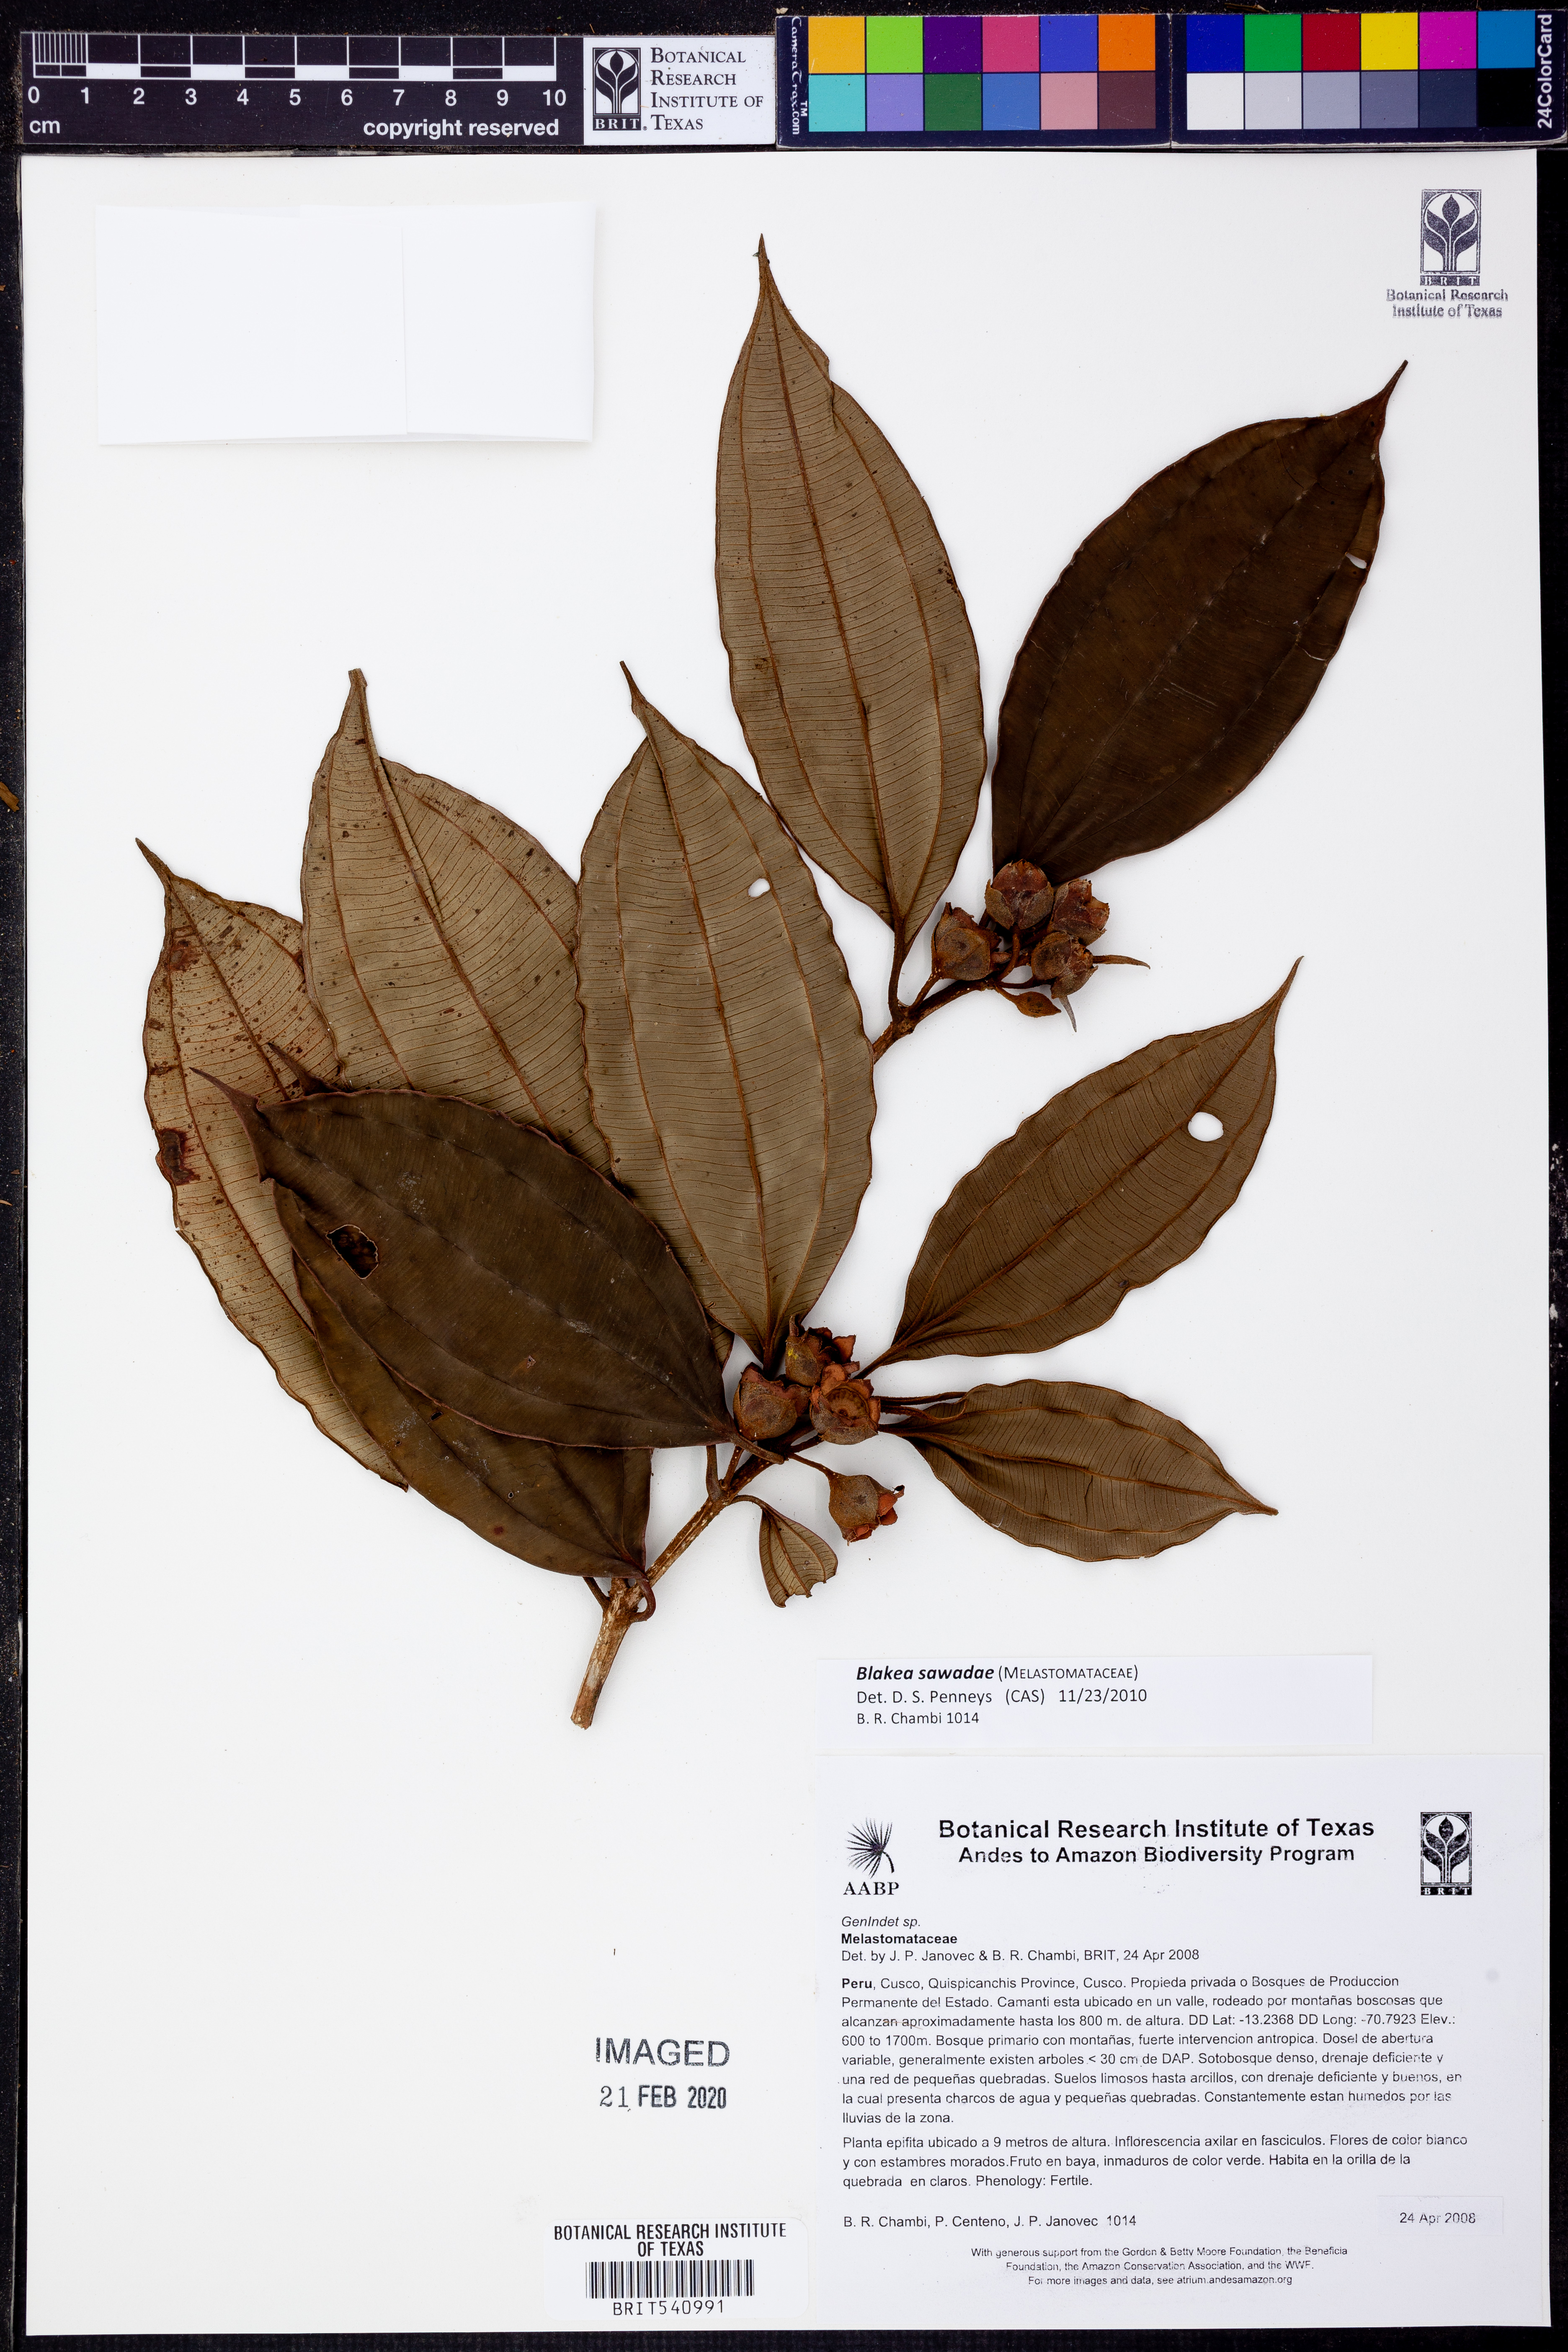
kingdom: Plantae
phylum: Tracheophyta
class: Magnoliopsida
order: Myrtales
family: Melastomataceae
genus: Blakea
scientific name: Blakea sawadae
